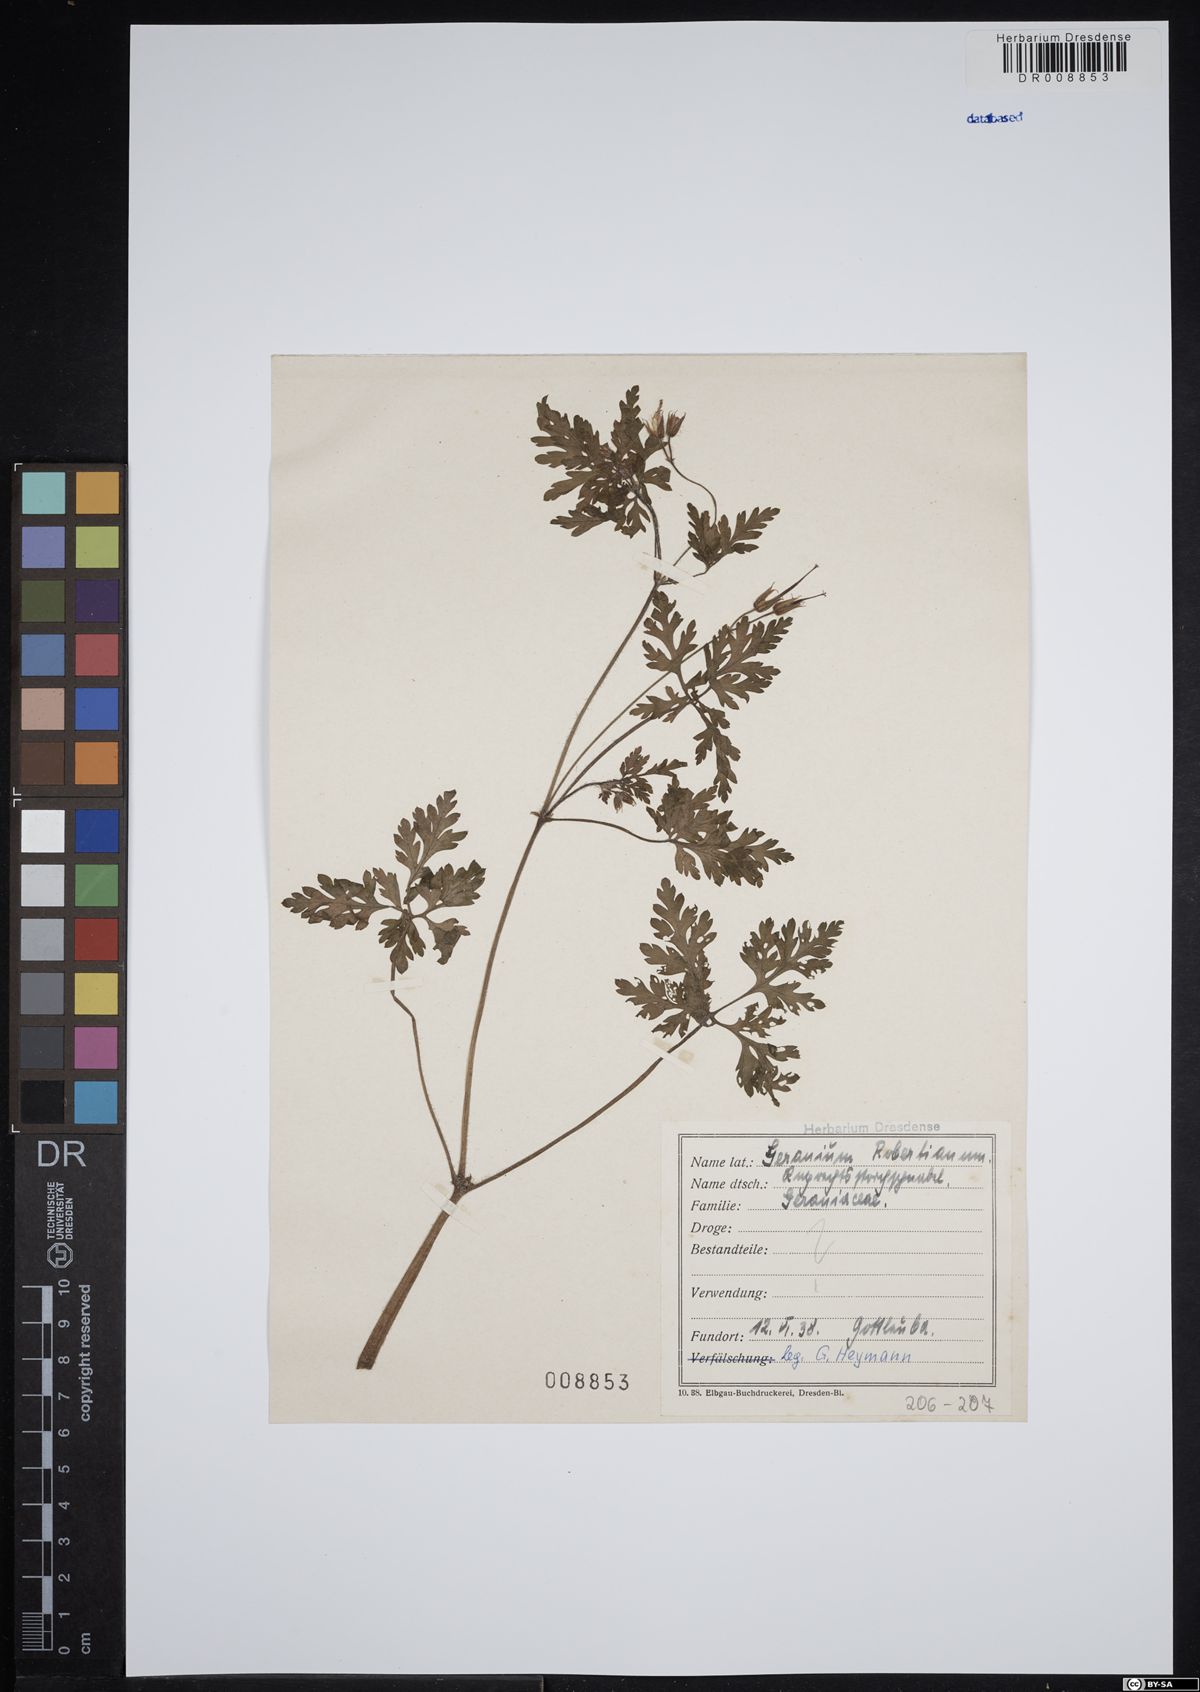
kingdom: Plantae
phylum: Tracheophyta
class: Magnoliopsida
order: Geraniales
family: Geraniaceae
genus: Geranium
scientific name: Geranium robertianum
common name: Herb-robert
